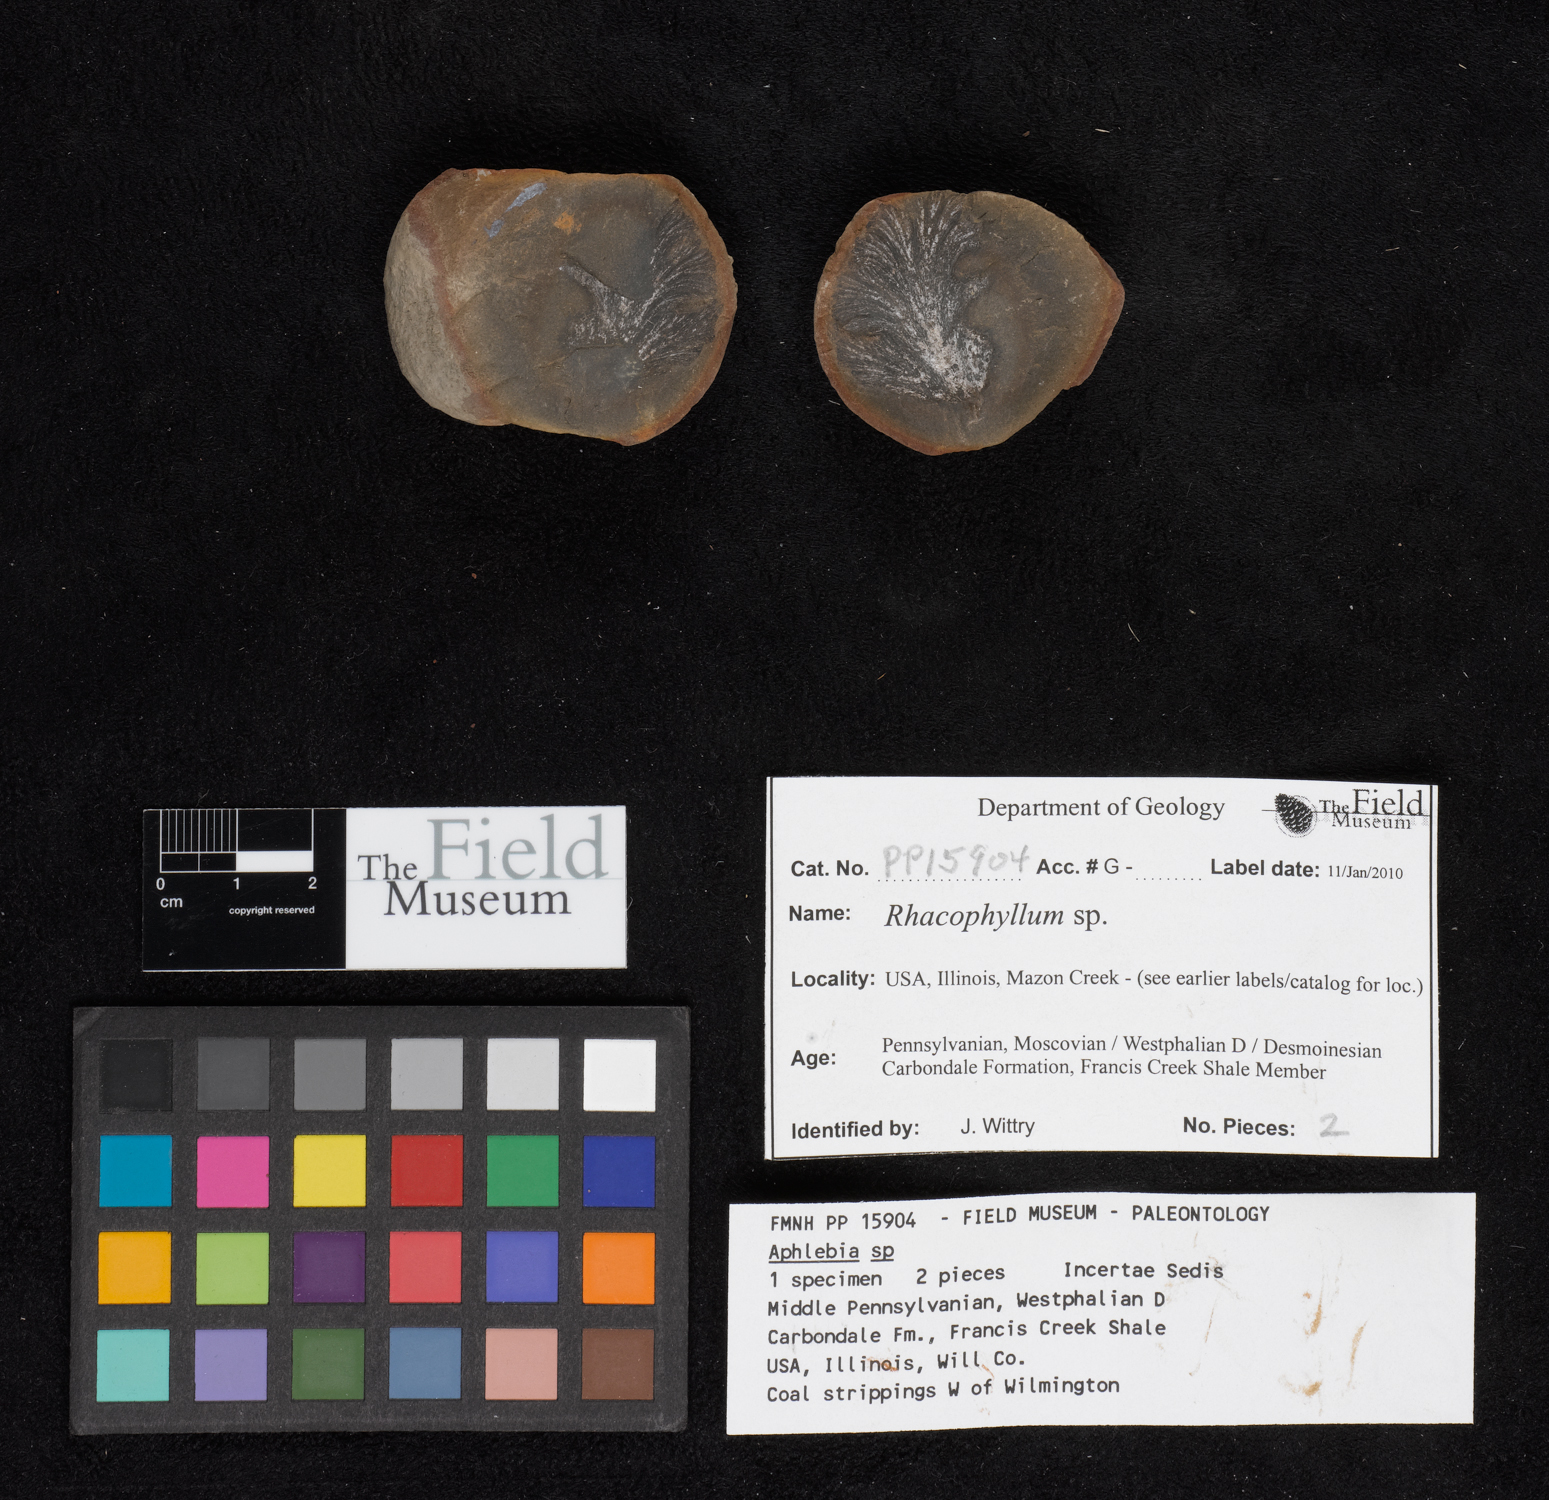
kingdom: Plantae
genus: Rhacophyllum
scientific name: Rhacophyllum
